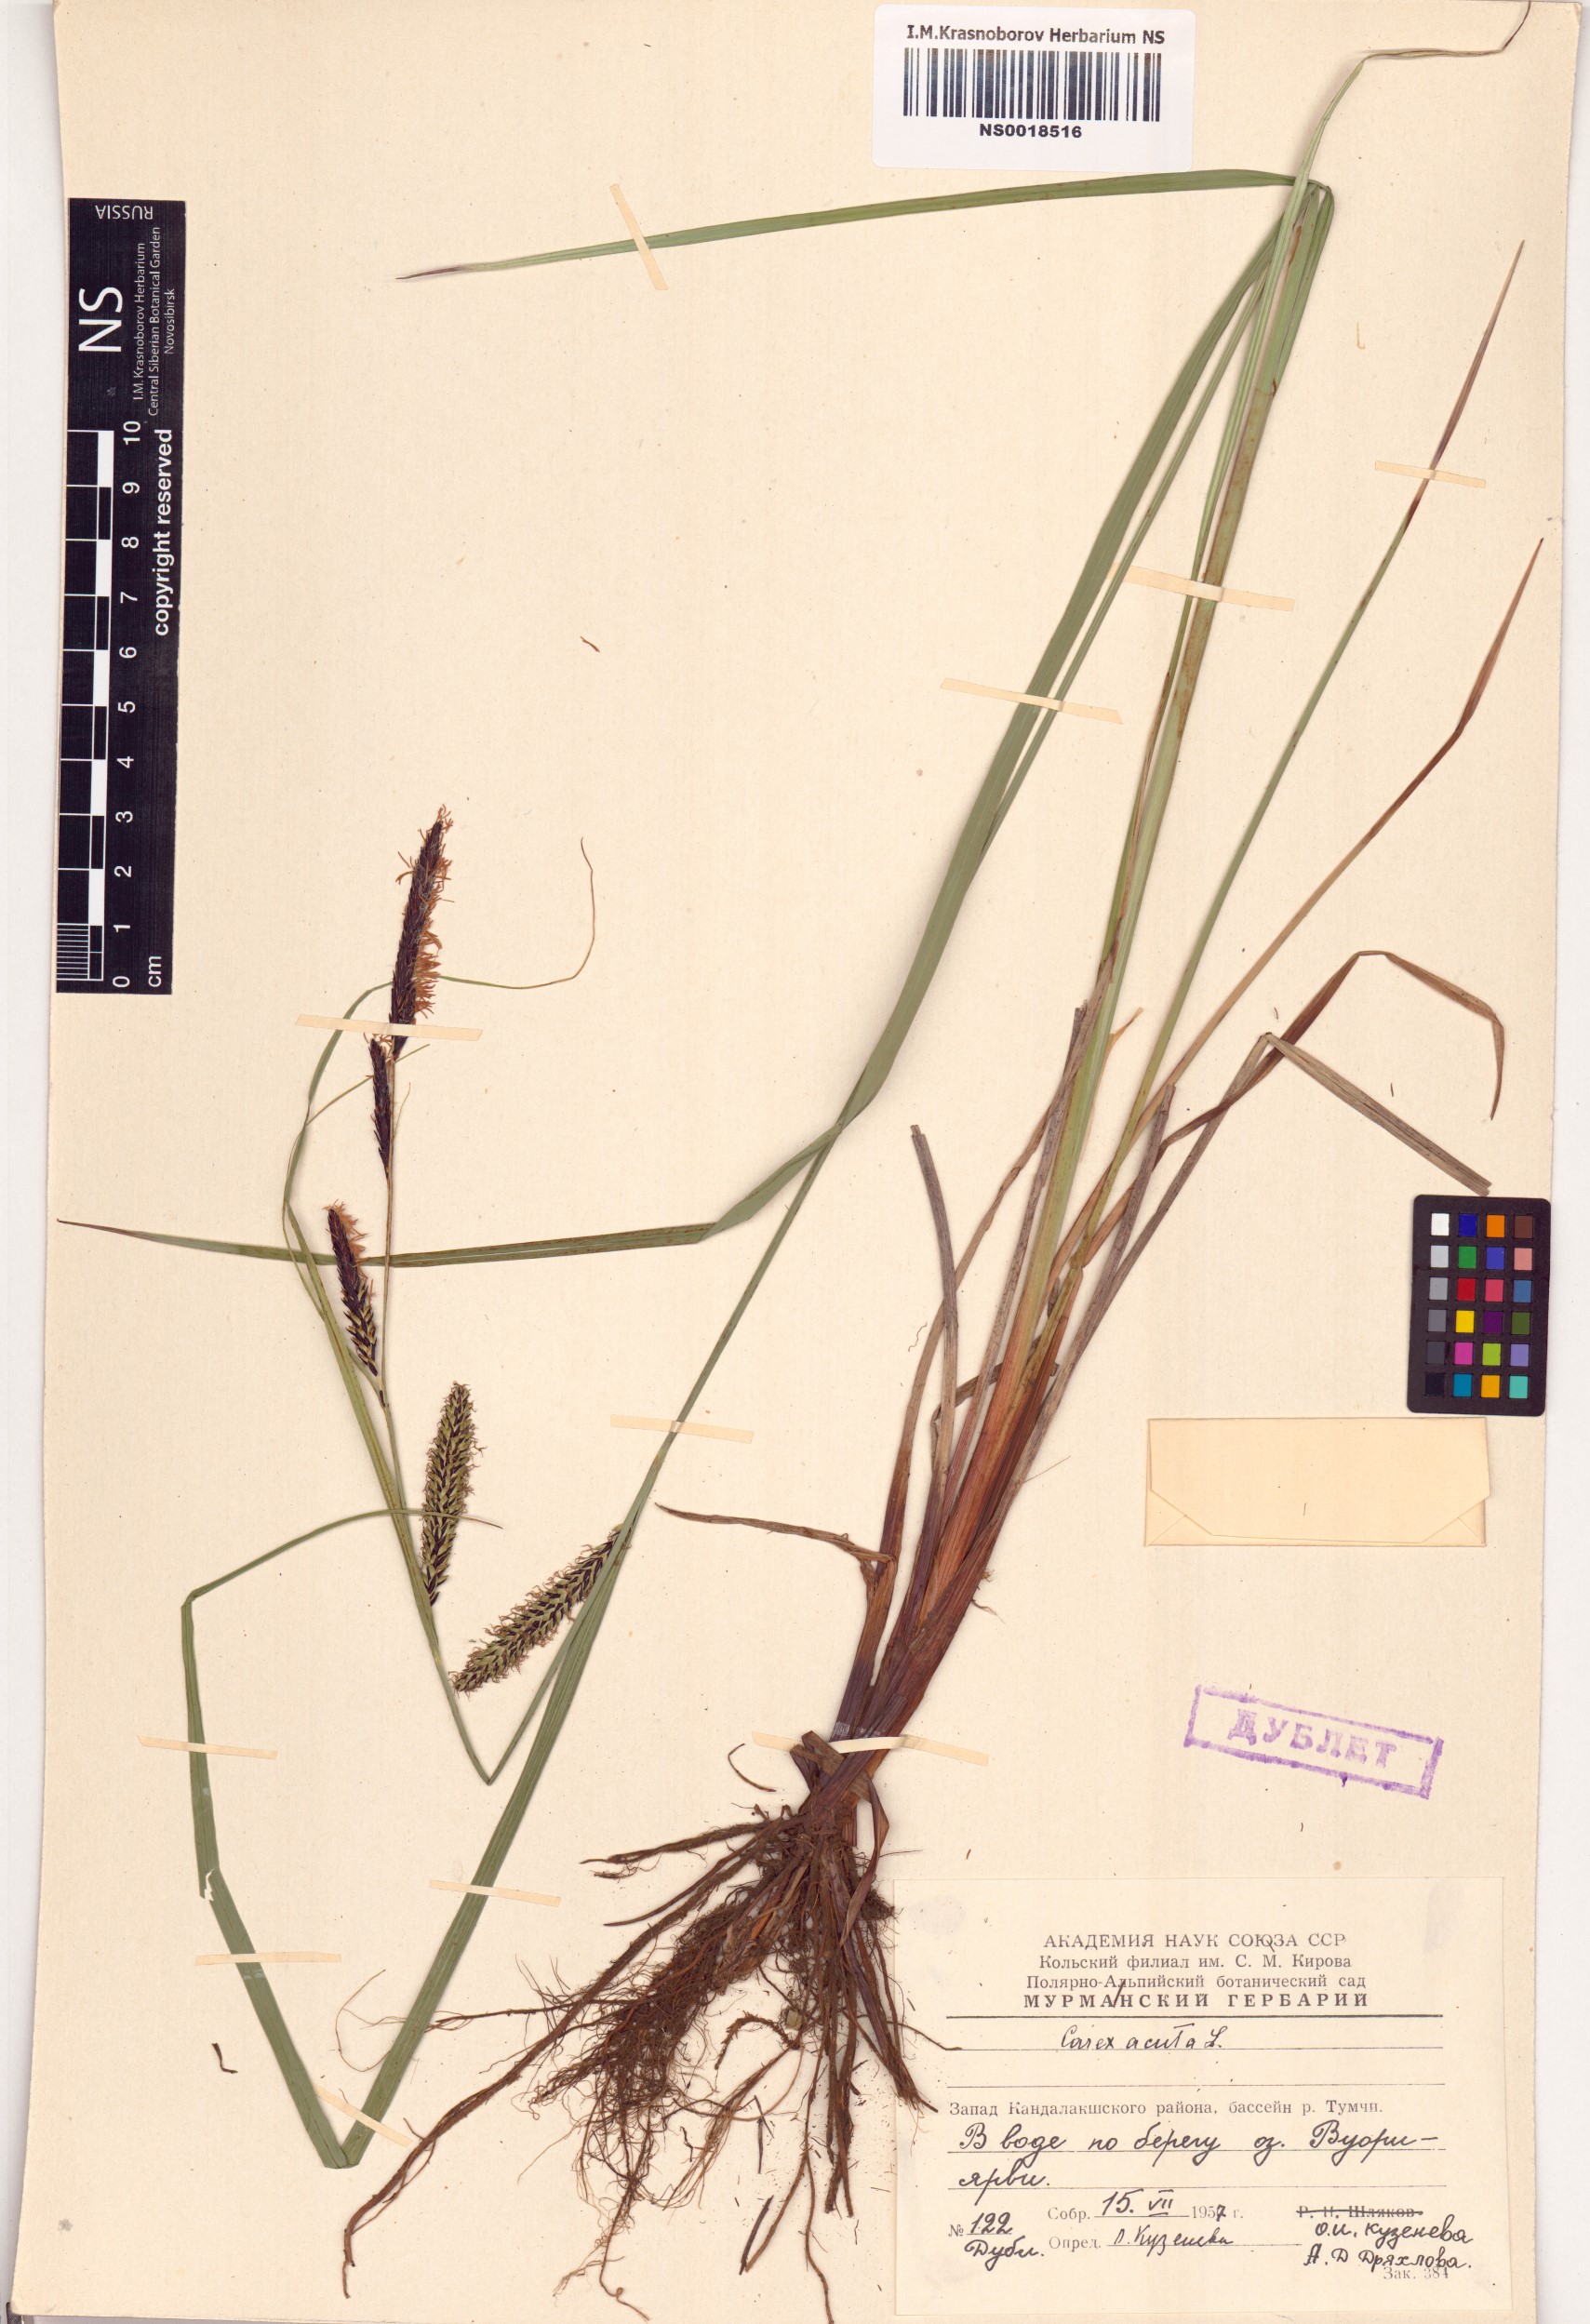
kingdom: Plantae
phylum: Tracheophyta
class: Liliopsida
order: Poales
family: Cyperaceae
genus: Carex
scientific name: Carex acuta
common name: Slender tufted-sedge
